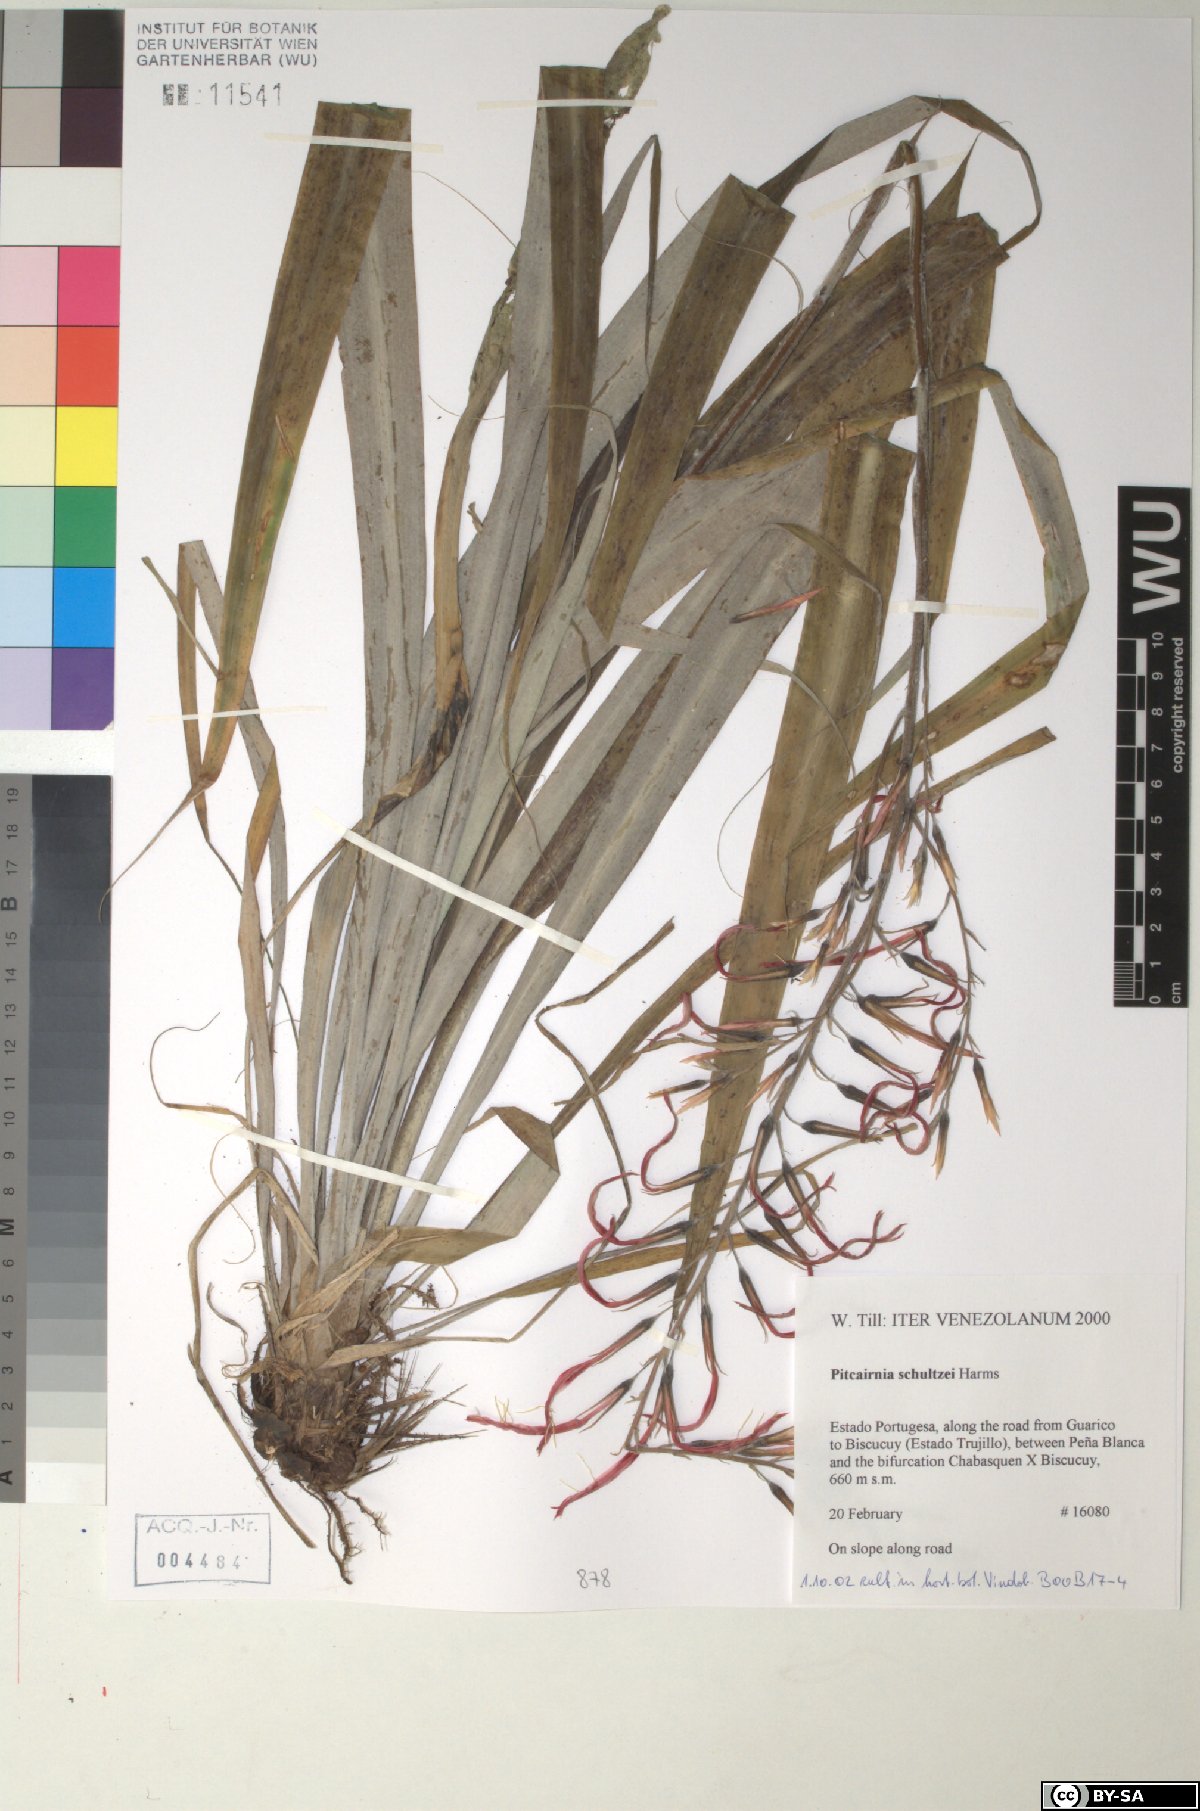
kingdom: Plantae
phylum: Tracheophyta
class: Liliopsida
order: Poales
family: Bromeliaceae
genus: Pitcairnia
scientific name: Pitcairnia schultzei
